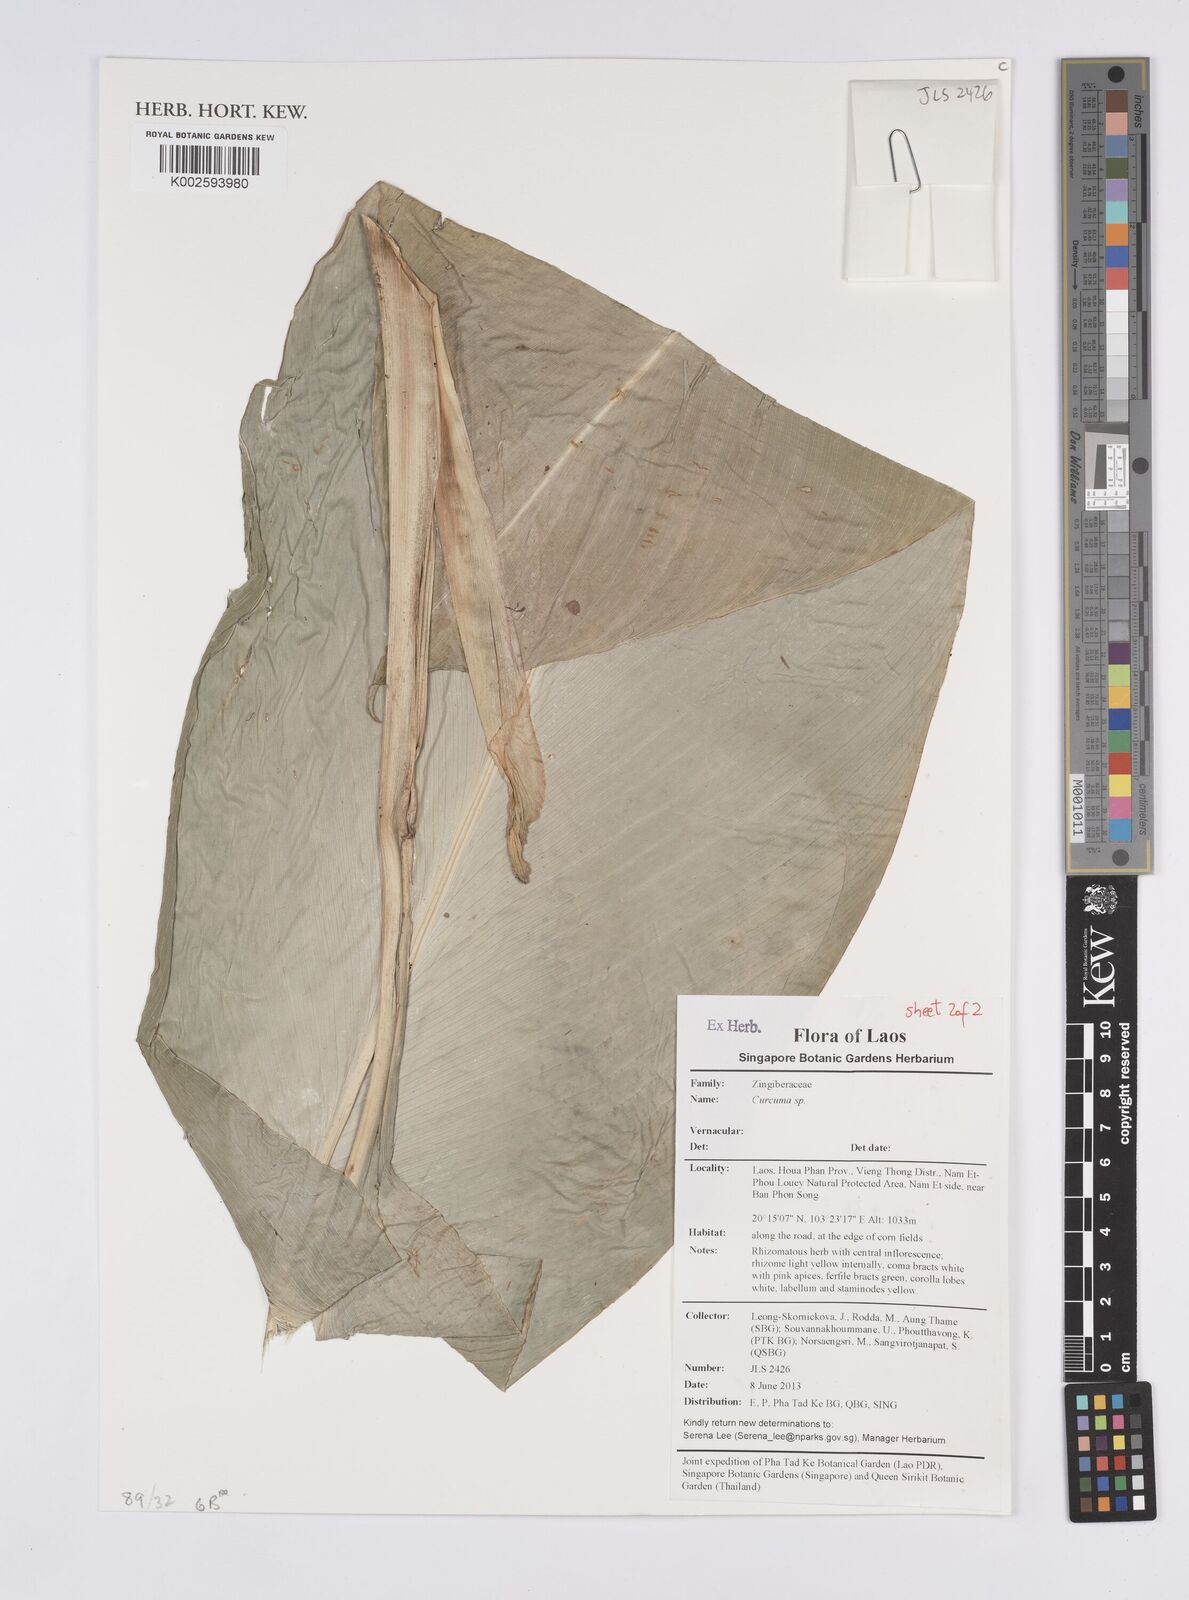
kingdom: Plantae
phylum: Tracheophyta
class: Liliopsida
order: Zingiberales
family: Zingiberaceae
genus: Curcuma
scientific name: Curcuma
